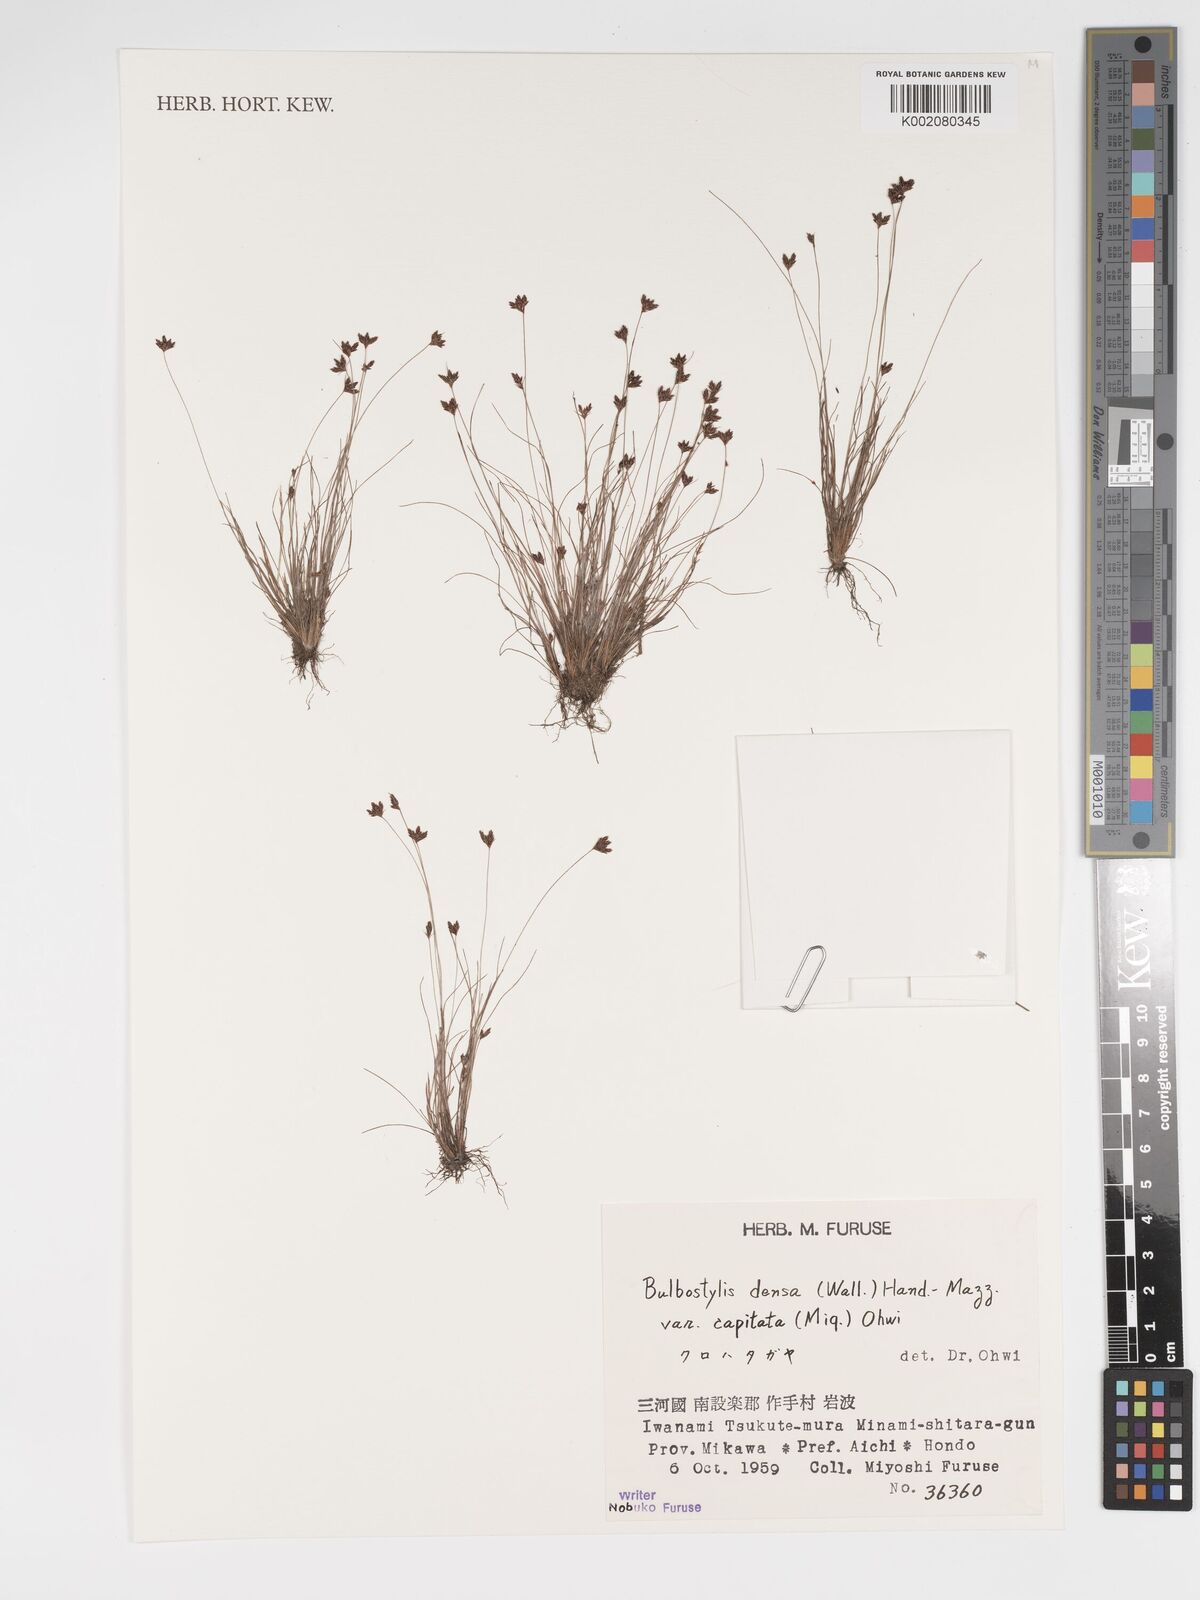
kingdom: Plantae
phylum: Tracheophyta
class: Liliopsida
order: Poales
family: Cyperaceae
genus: Bulbostylis
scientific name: Bulbostylis densa
